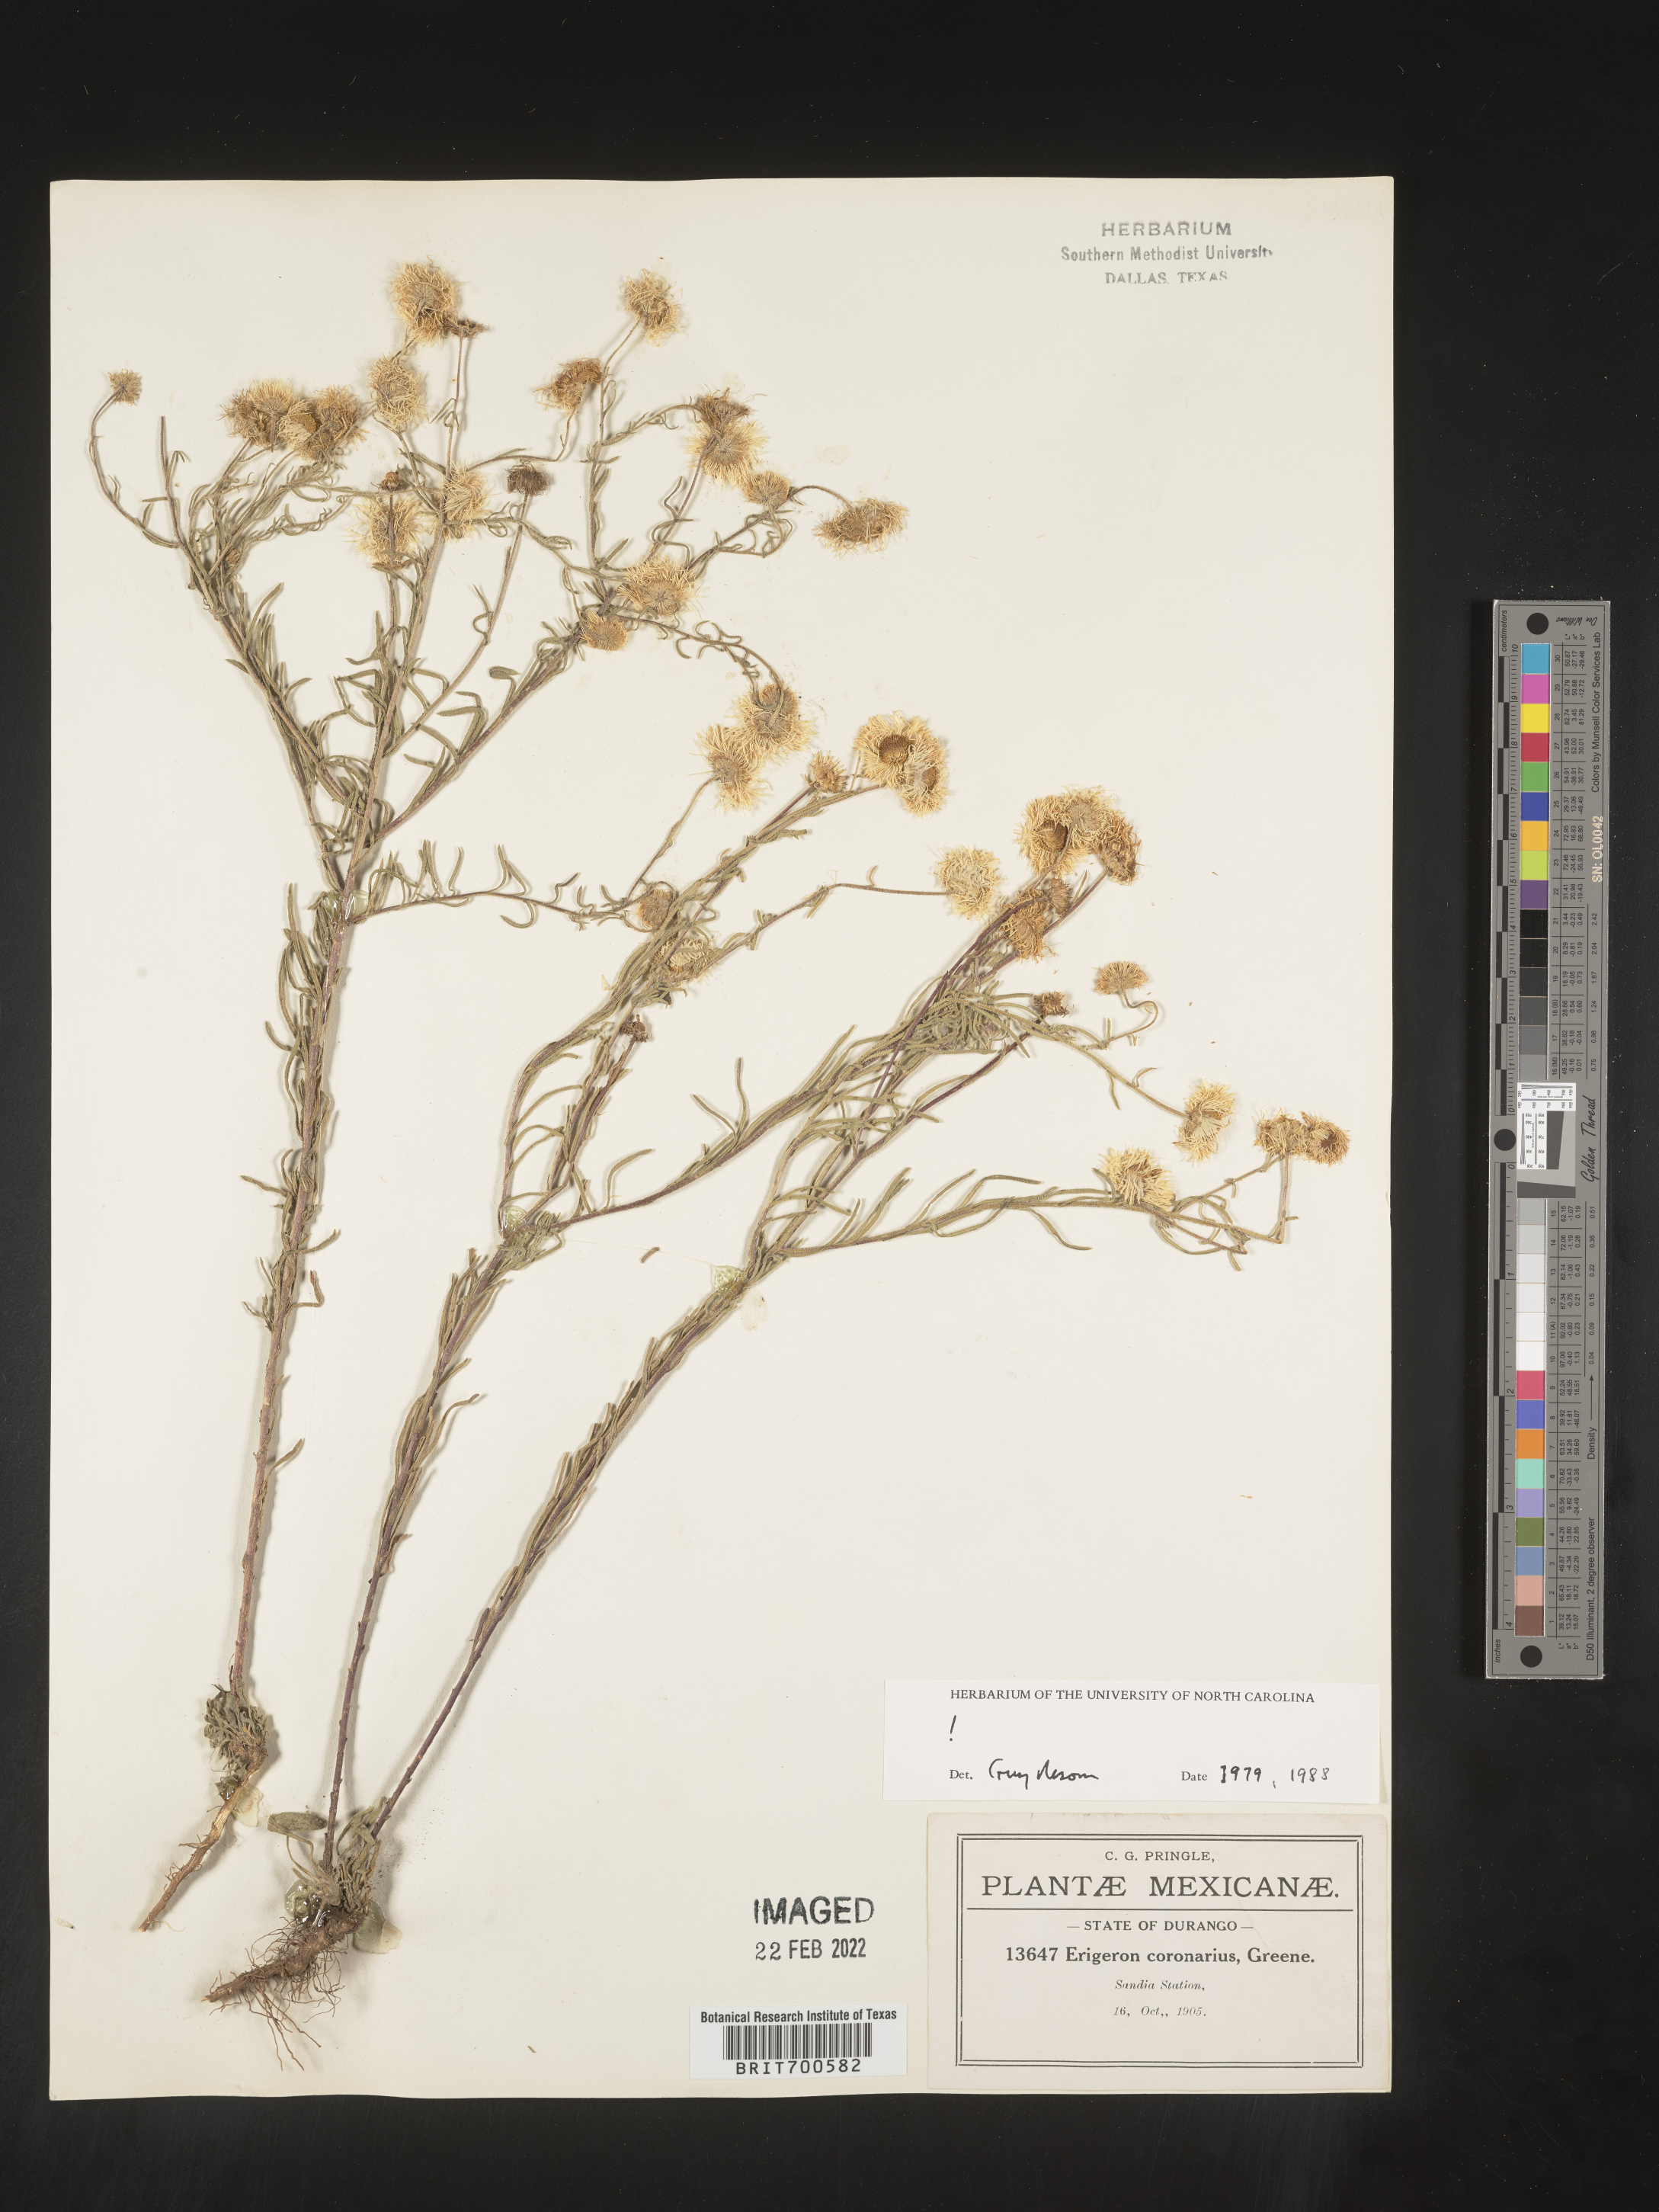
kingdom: Plantae
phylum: Tracheophyta
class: Magnoliopsida
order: Asterales
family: Asteraceae
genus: Erigeron
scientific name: Erigeron coronarius
